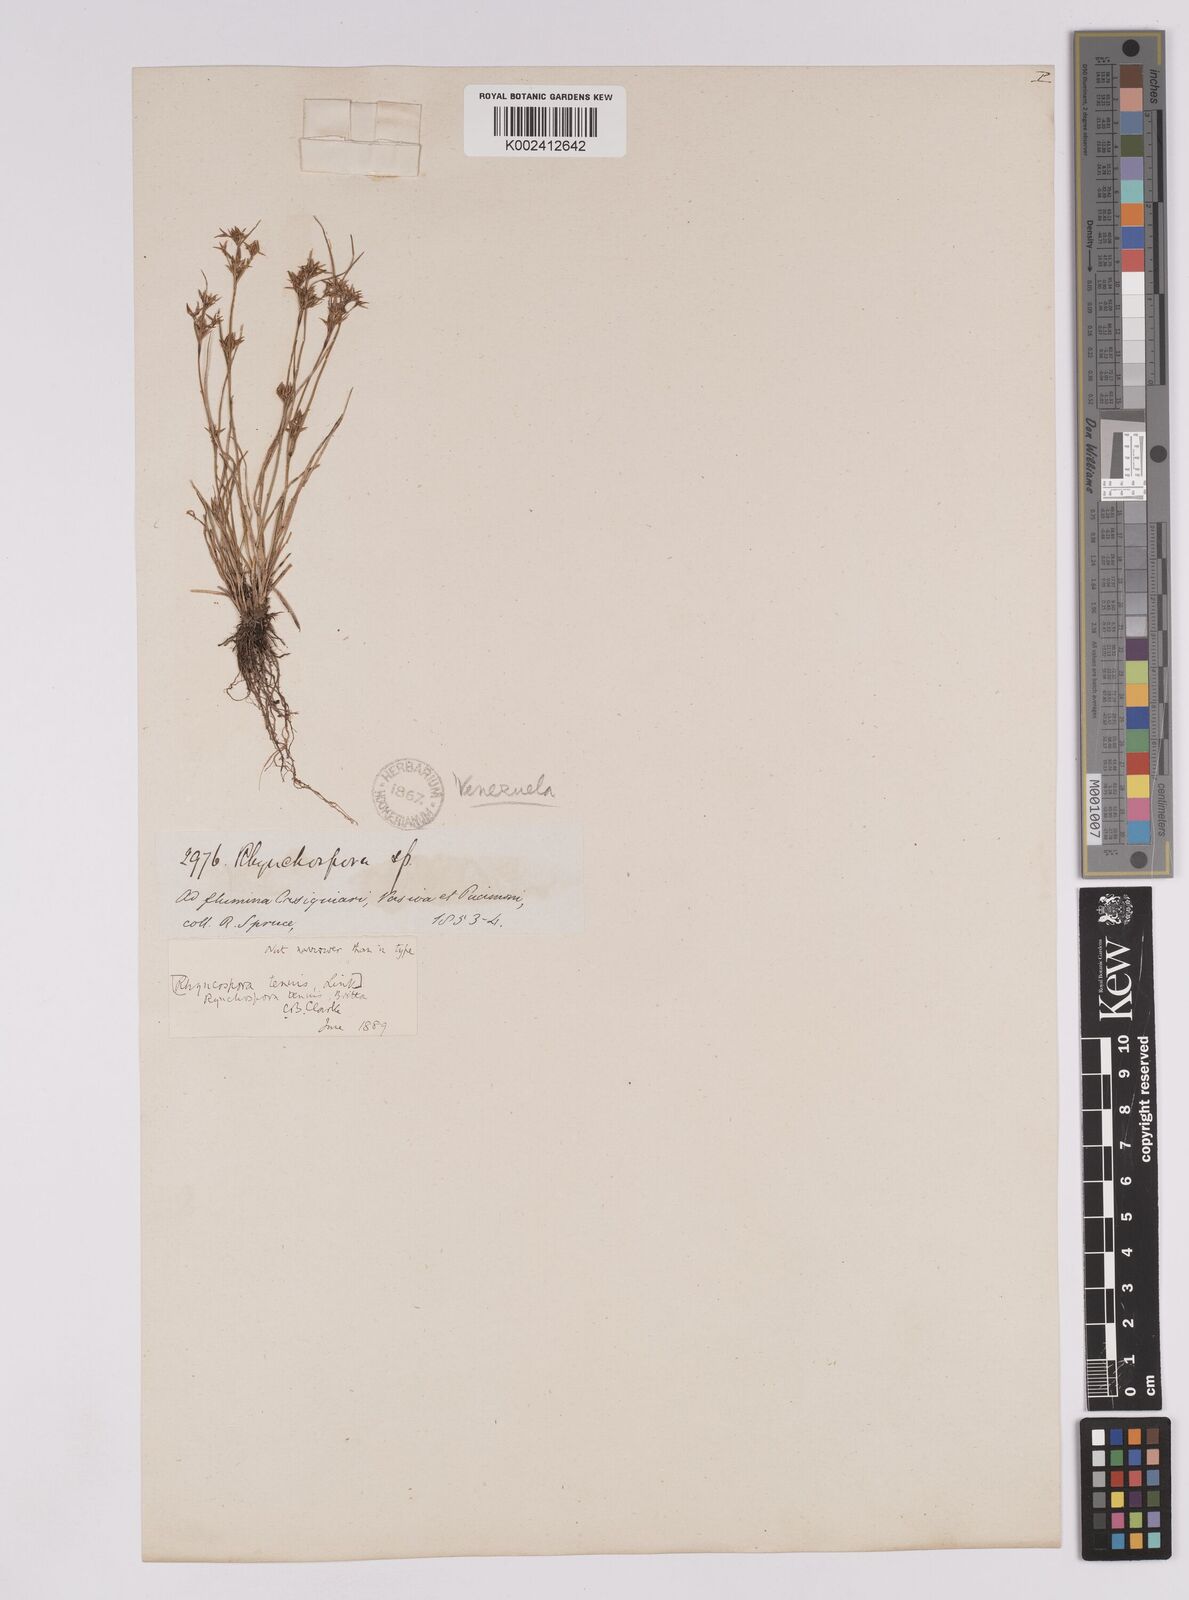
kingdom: Plantae
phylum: Tracheophyta
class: Liliopsida
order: Poales
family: Cyperaceae
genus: Rhynchospora
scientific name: Rhynchospora radicans
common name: Tropical whitetop
